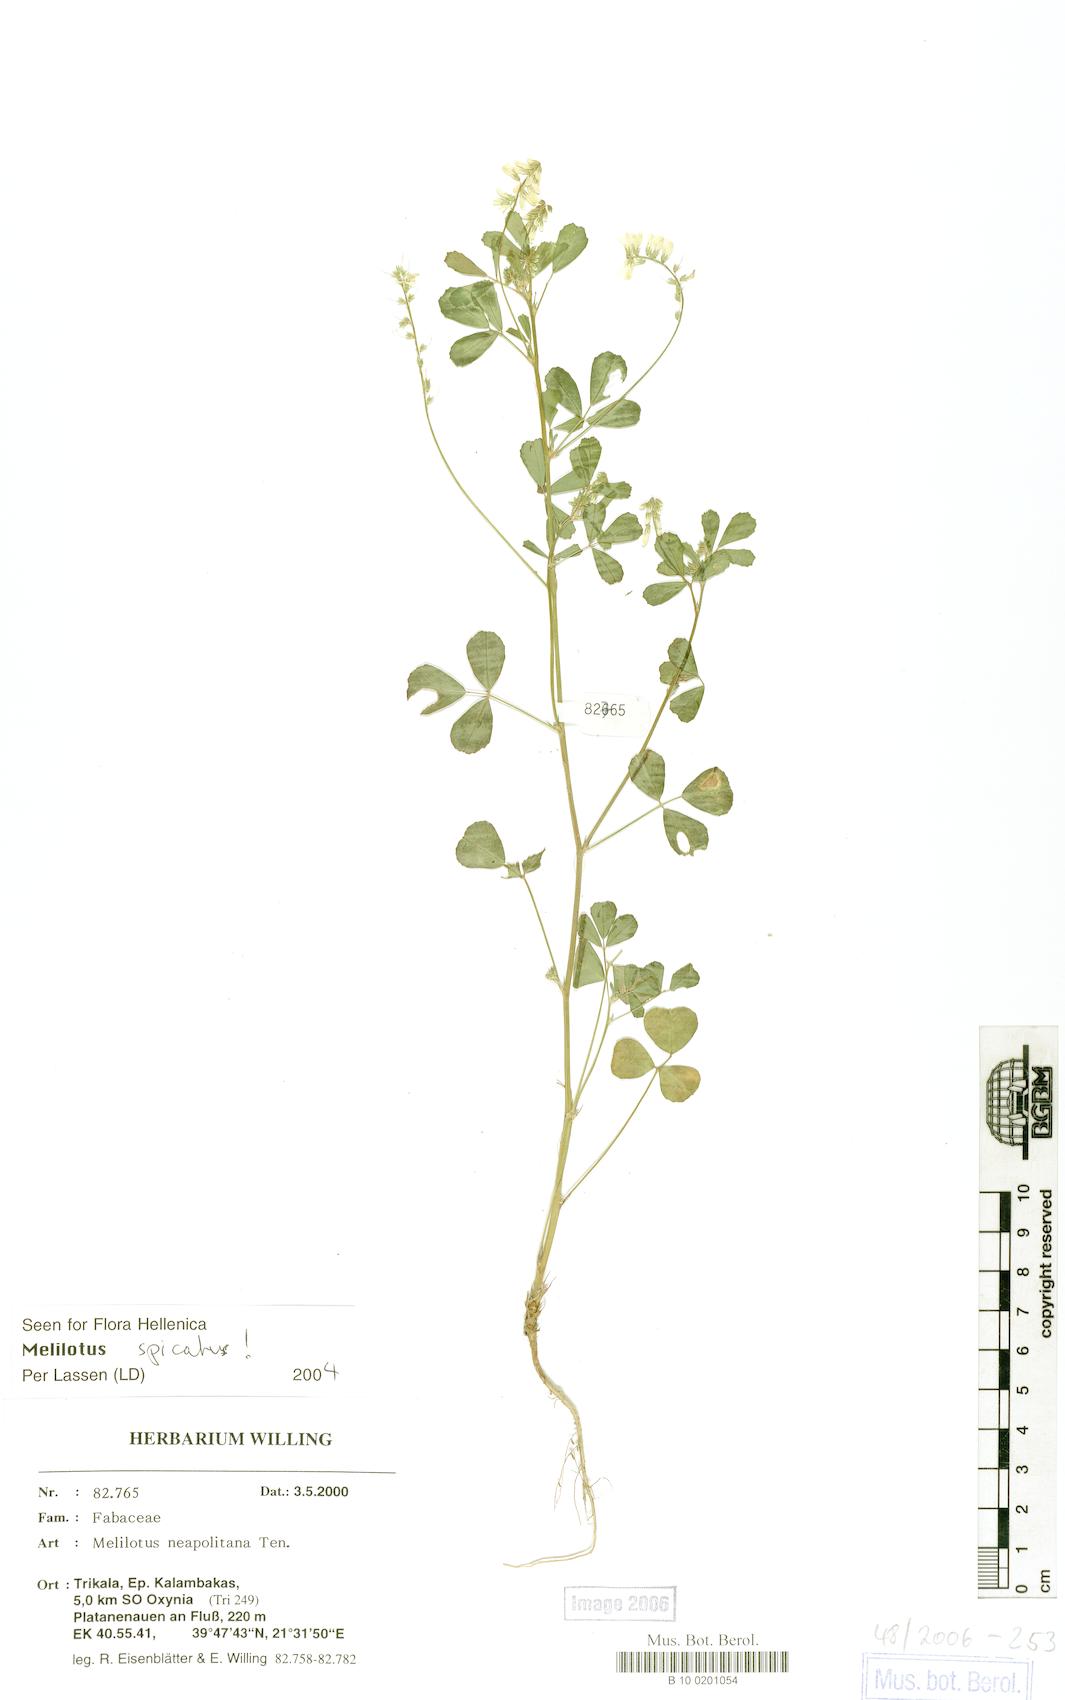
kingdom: Plantae
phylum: Tracheophyta
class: Magnoliopsida
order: Fabales
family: Fabaceae
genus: Melilotus
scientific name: Melilotus neapolitanus
